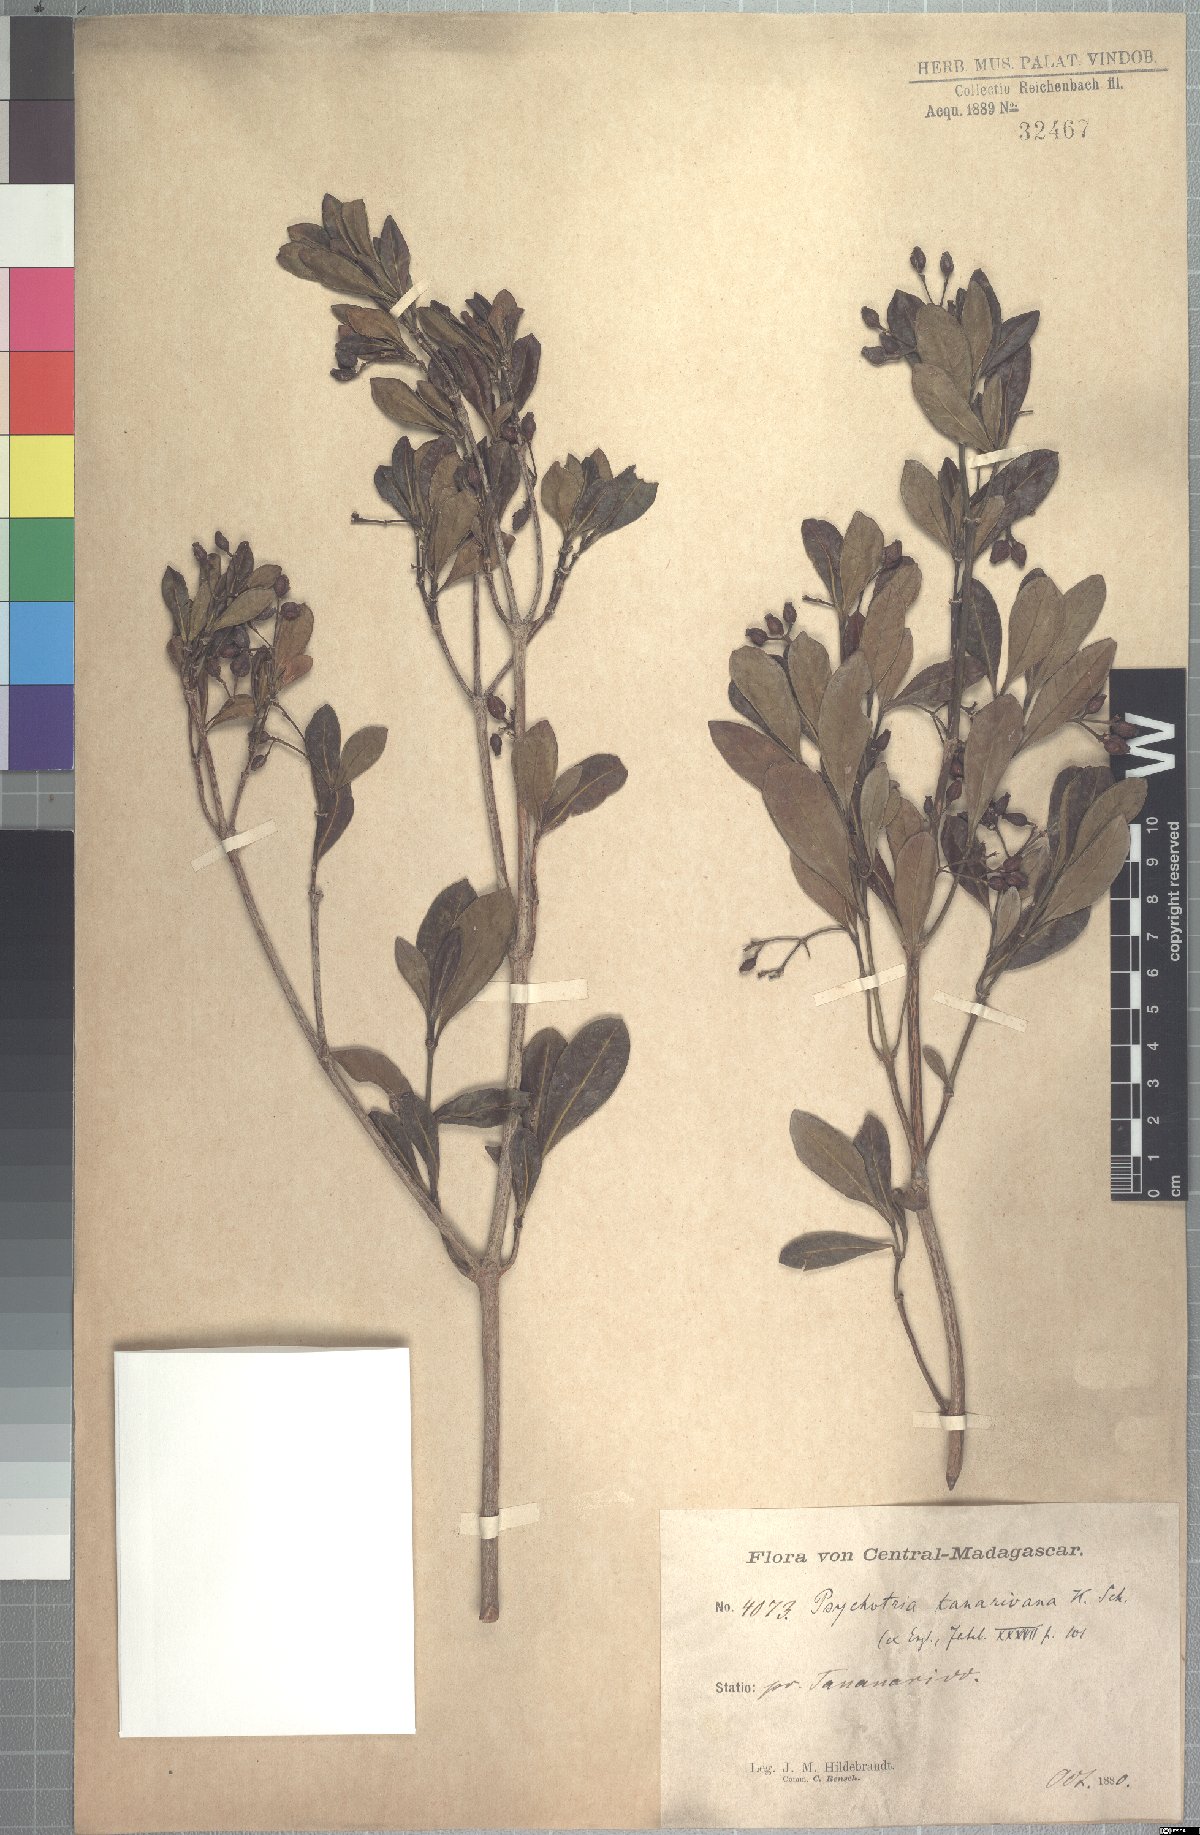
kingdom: Plantae
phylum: Tracheophyta
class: Magnoliopsida
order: Gentianales
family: Rubiaceae
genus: Psychotria
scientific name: Psychotria retiphlebia
